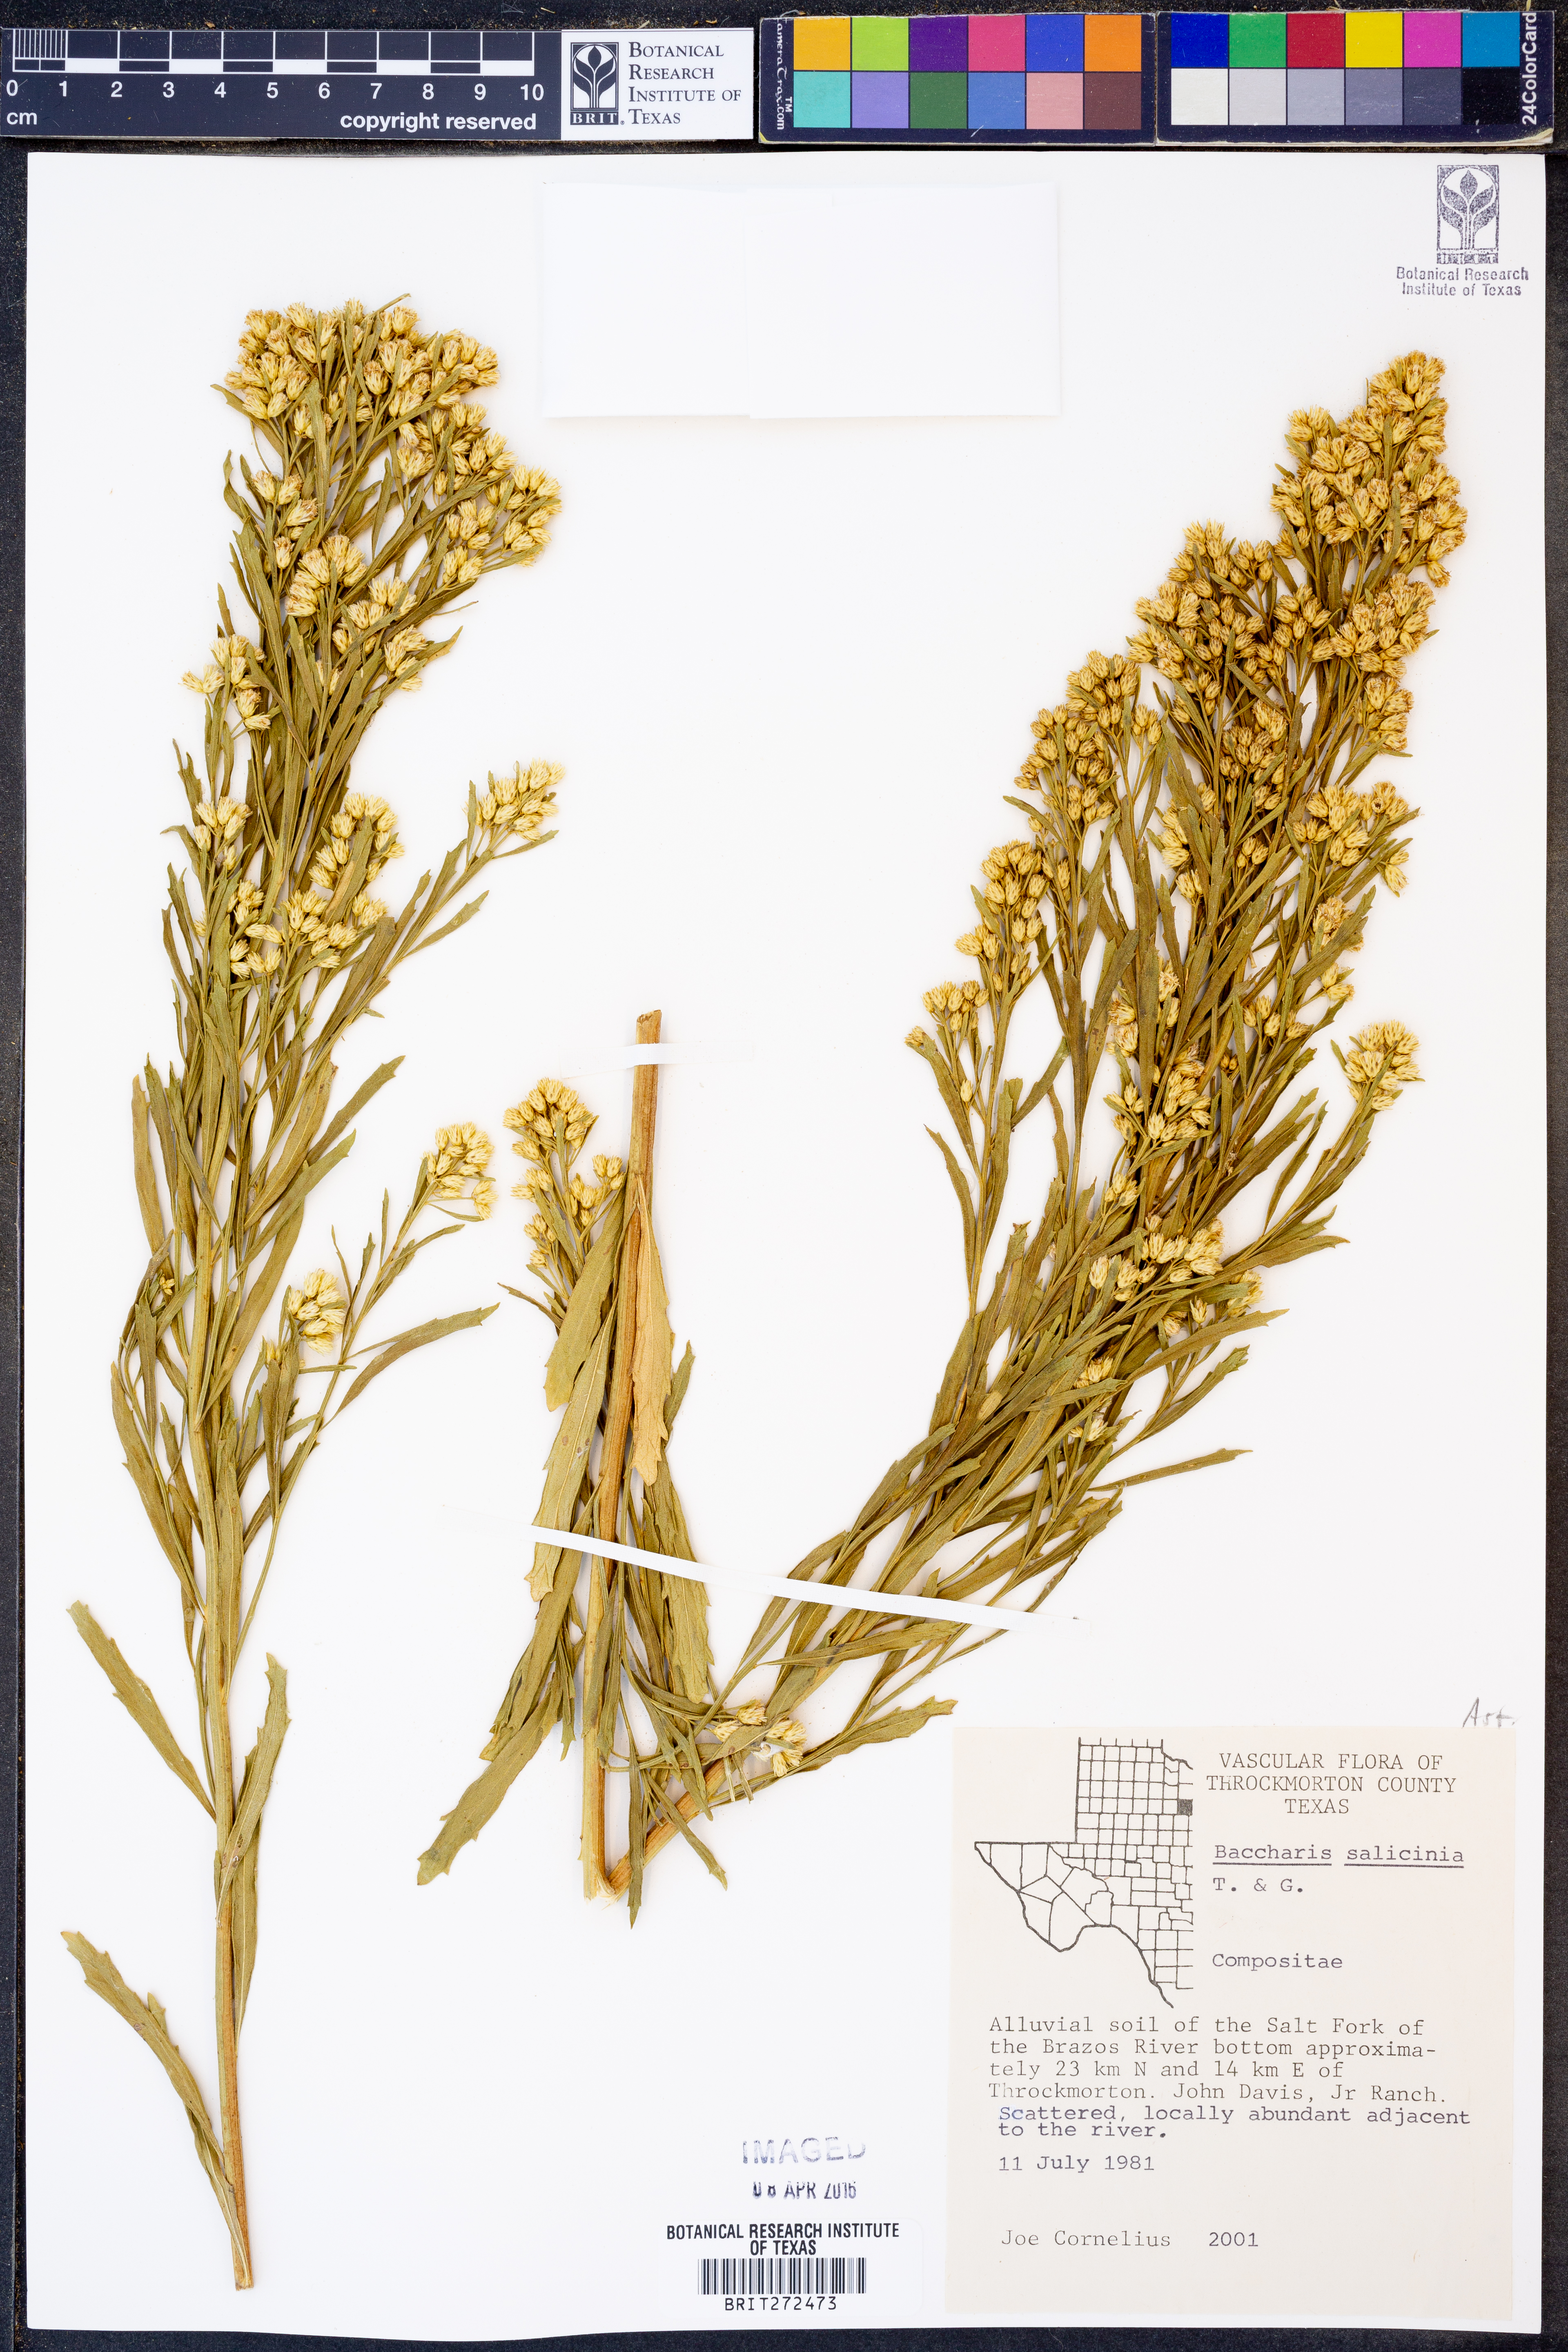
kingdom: Plantae
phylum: Tracheophyta
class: Magnoliopsida
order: Asterales
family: Asteraceae
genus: Baccharis
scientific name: Baccharis salicina
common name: Willow baccharis
